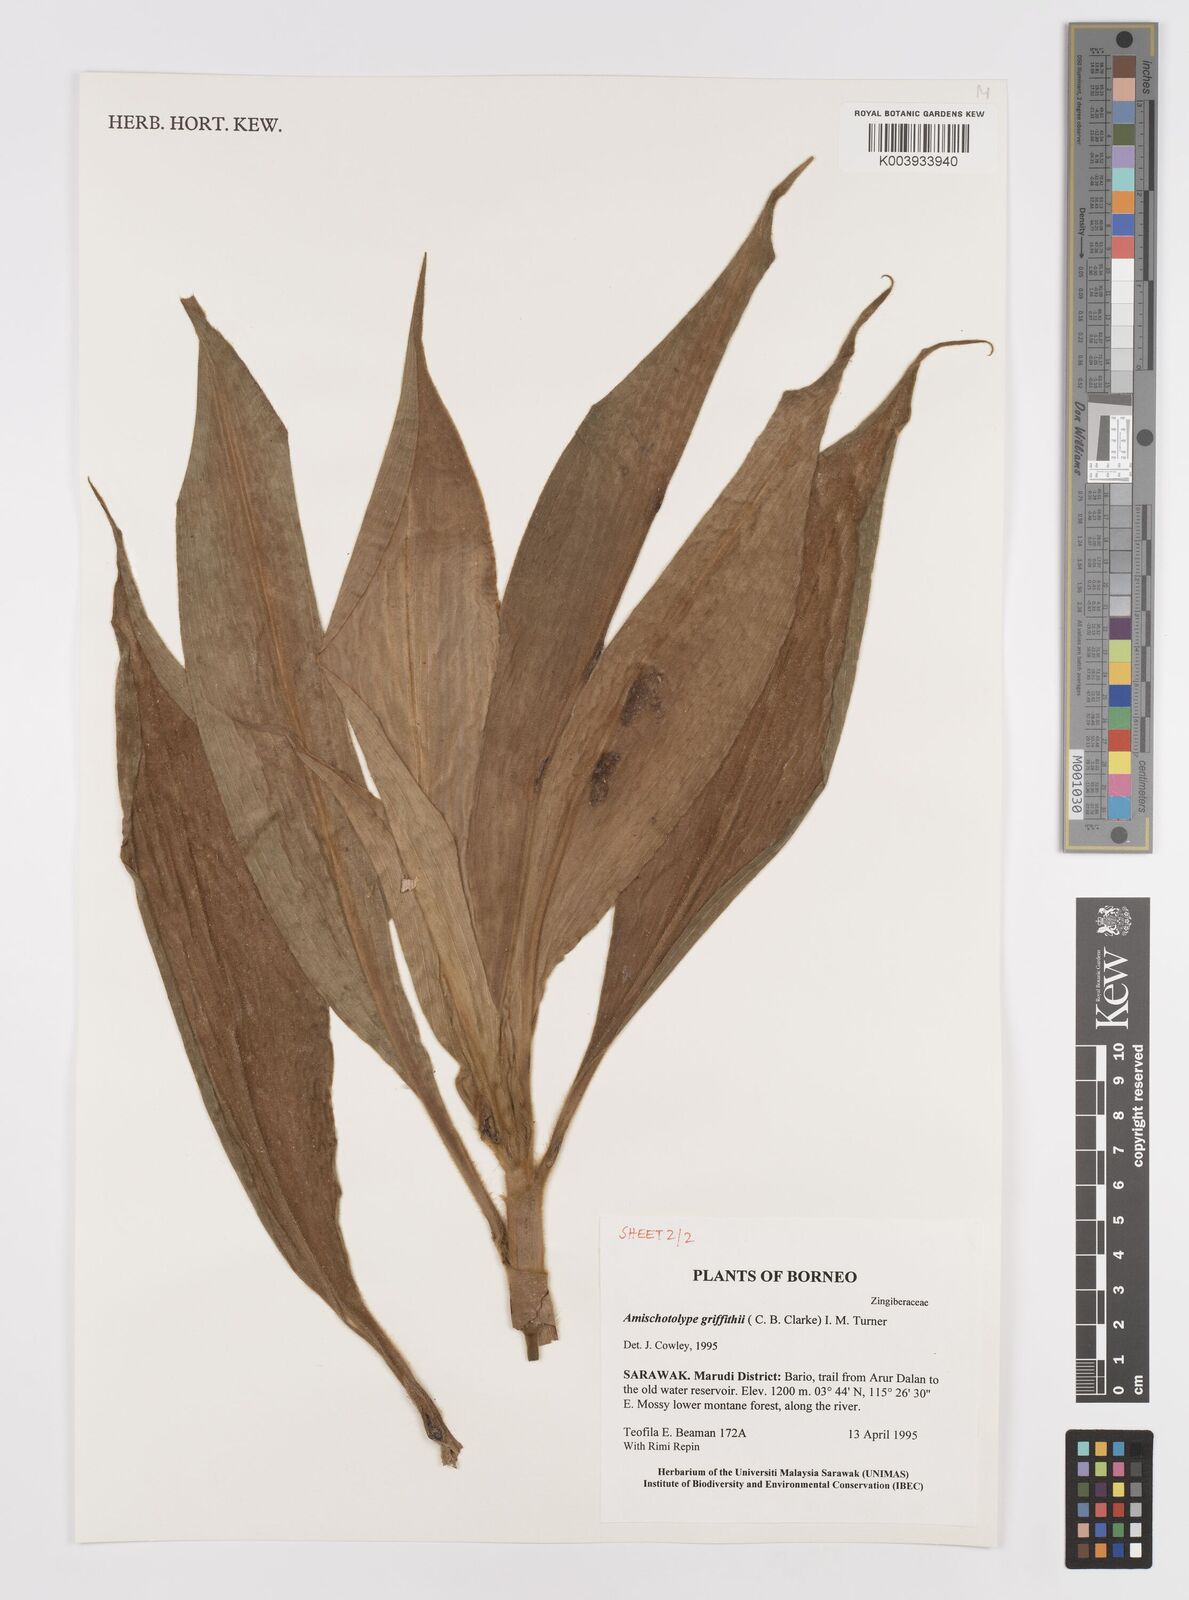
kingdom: Plantae
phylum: Tracheophyta
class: Liliopsida
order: Commelinales
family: Commelinaceae
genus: Amischotolype
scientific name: Amischotolype griffithii
